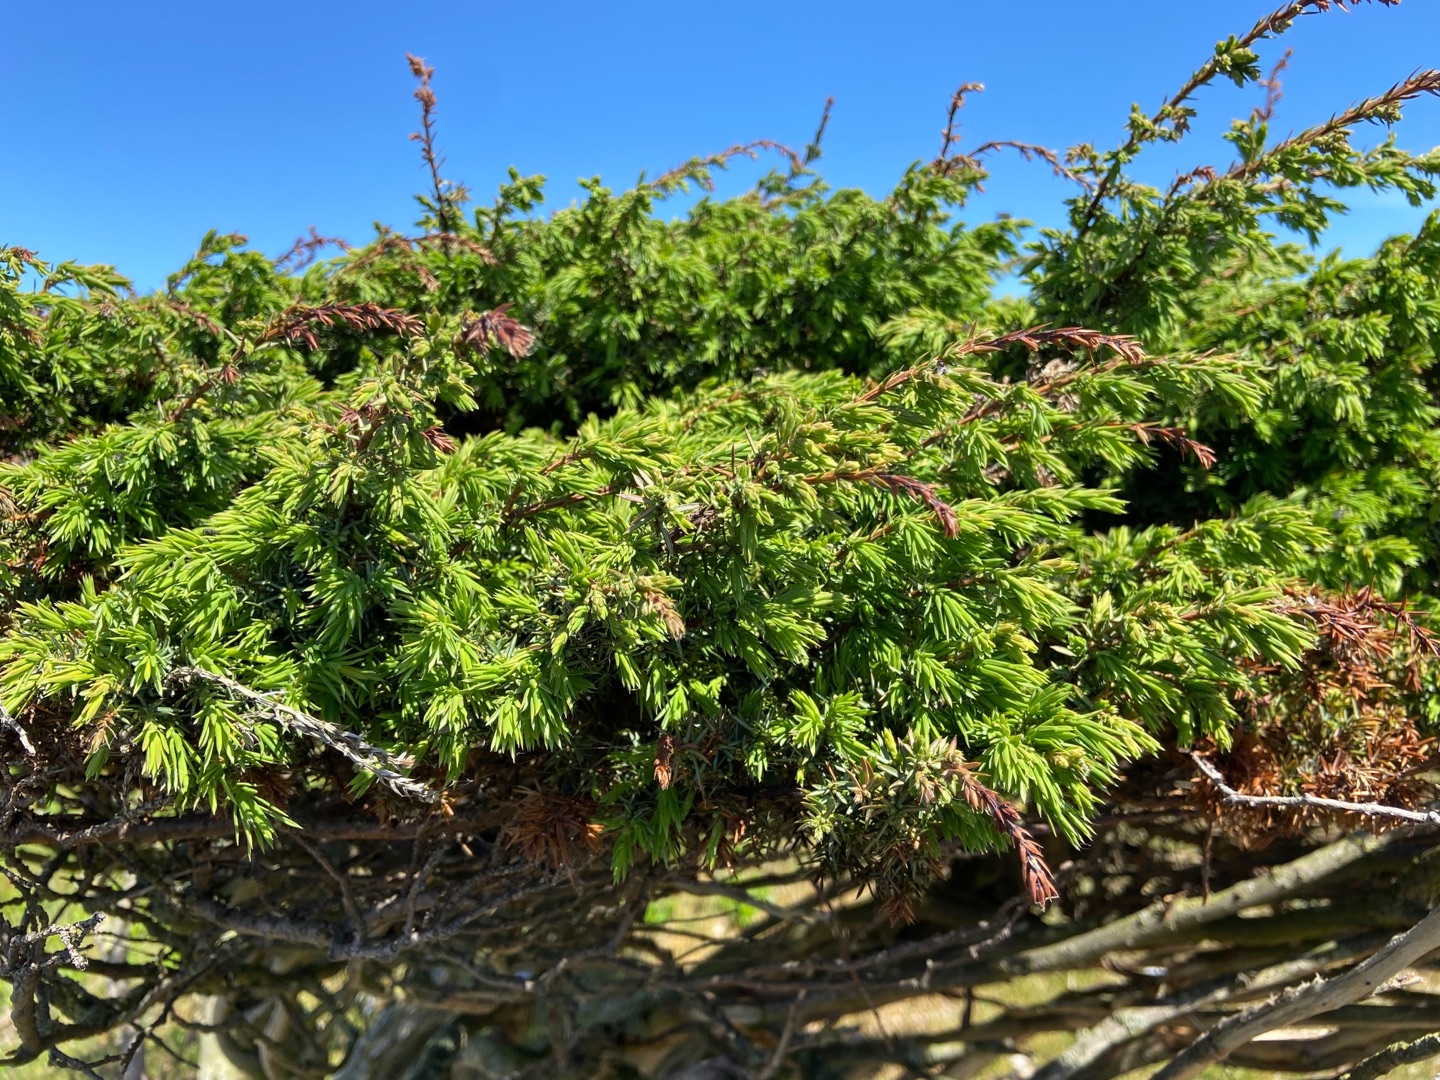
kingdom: Plantae
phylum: Tracheophyta
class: Pinopsida
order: Pinales
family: Cupressaceae
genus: Juniperus
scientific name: Juniperus communis
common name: Almindelig ene
